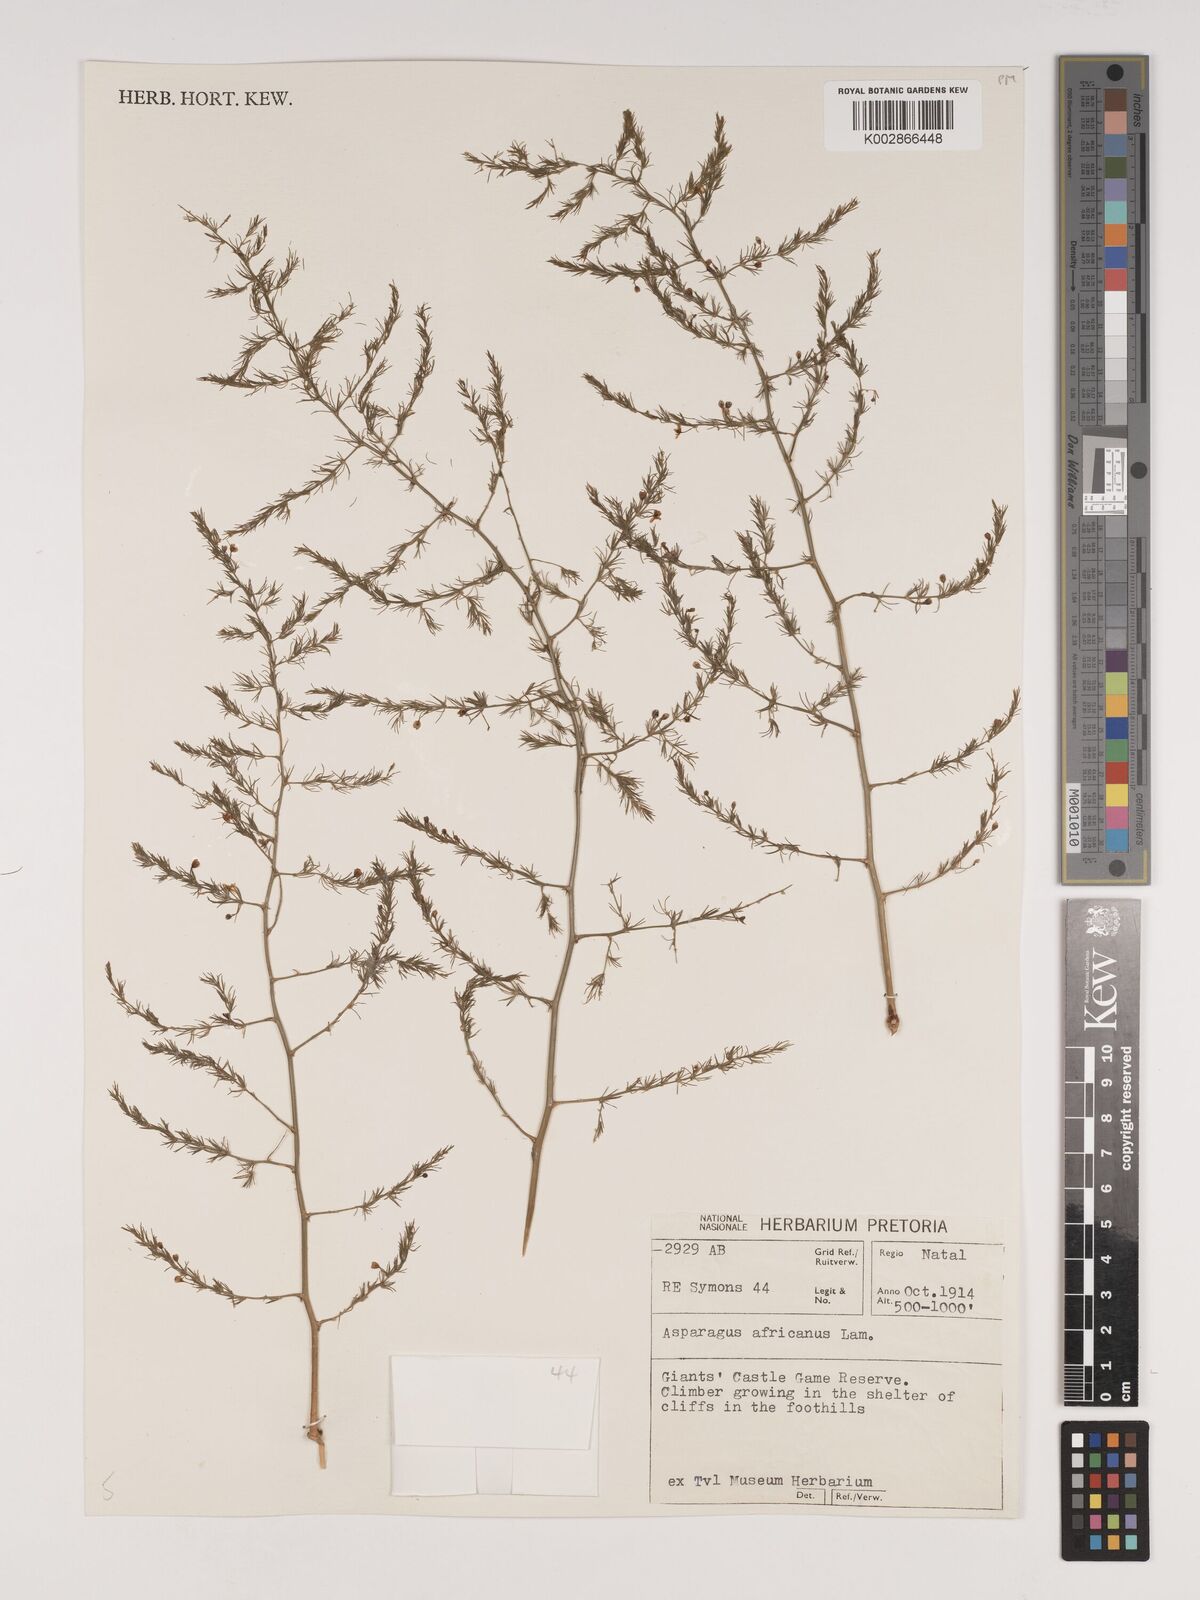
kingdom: Plantae
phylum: Tracheophyta
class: Liliopsida
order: Asparagales
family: Asparagaceae
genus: Asparagus
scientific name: Asparagus africanus
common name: Asparagus-fern
